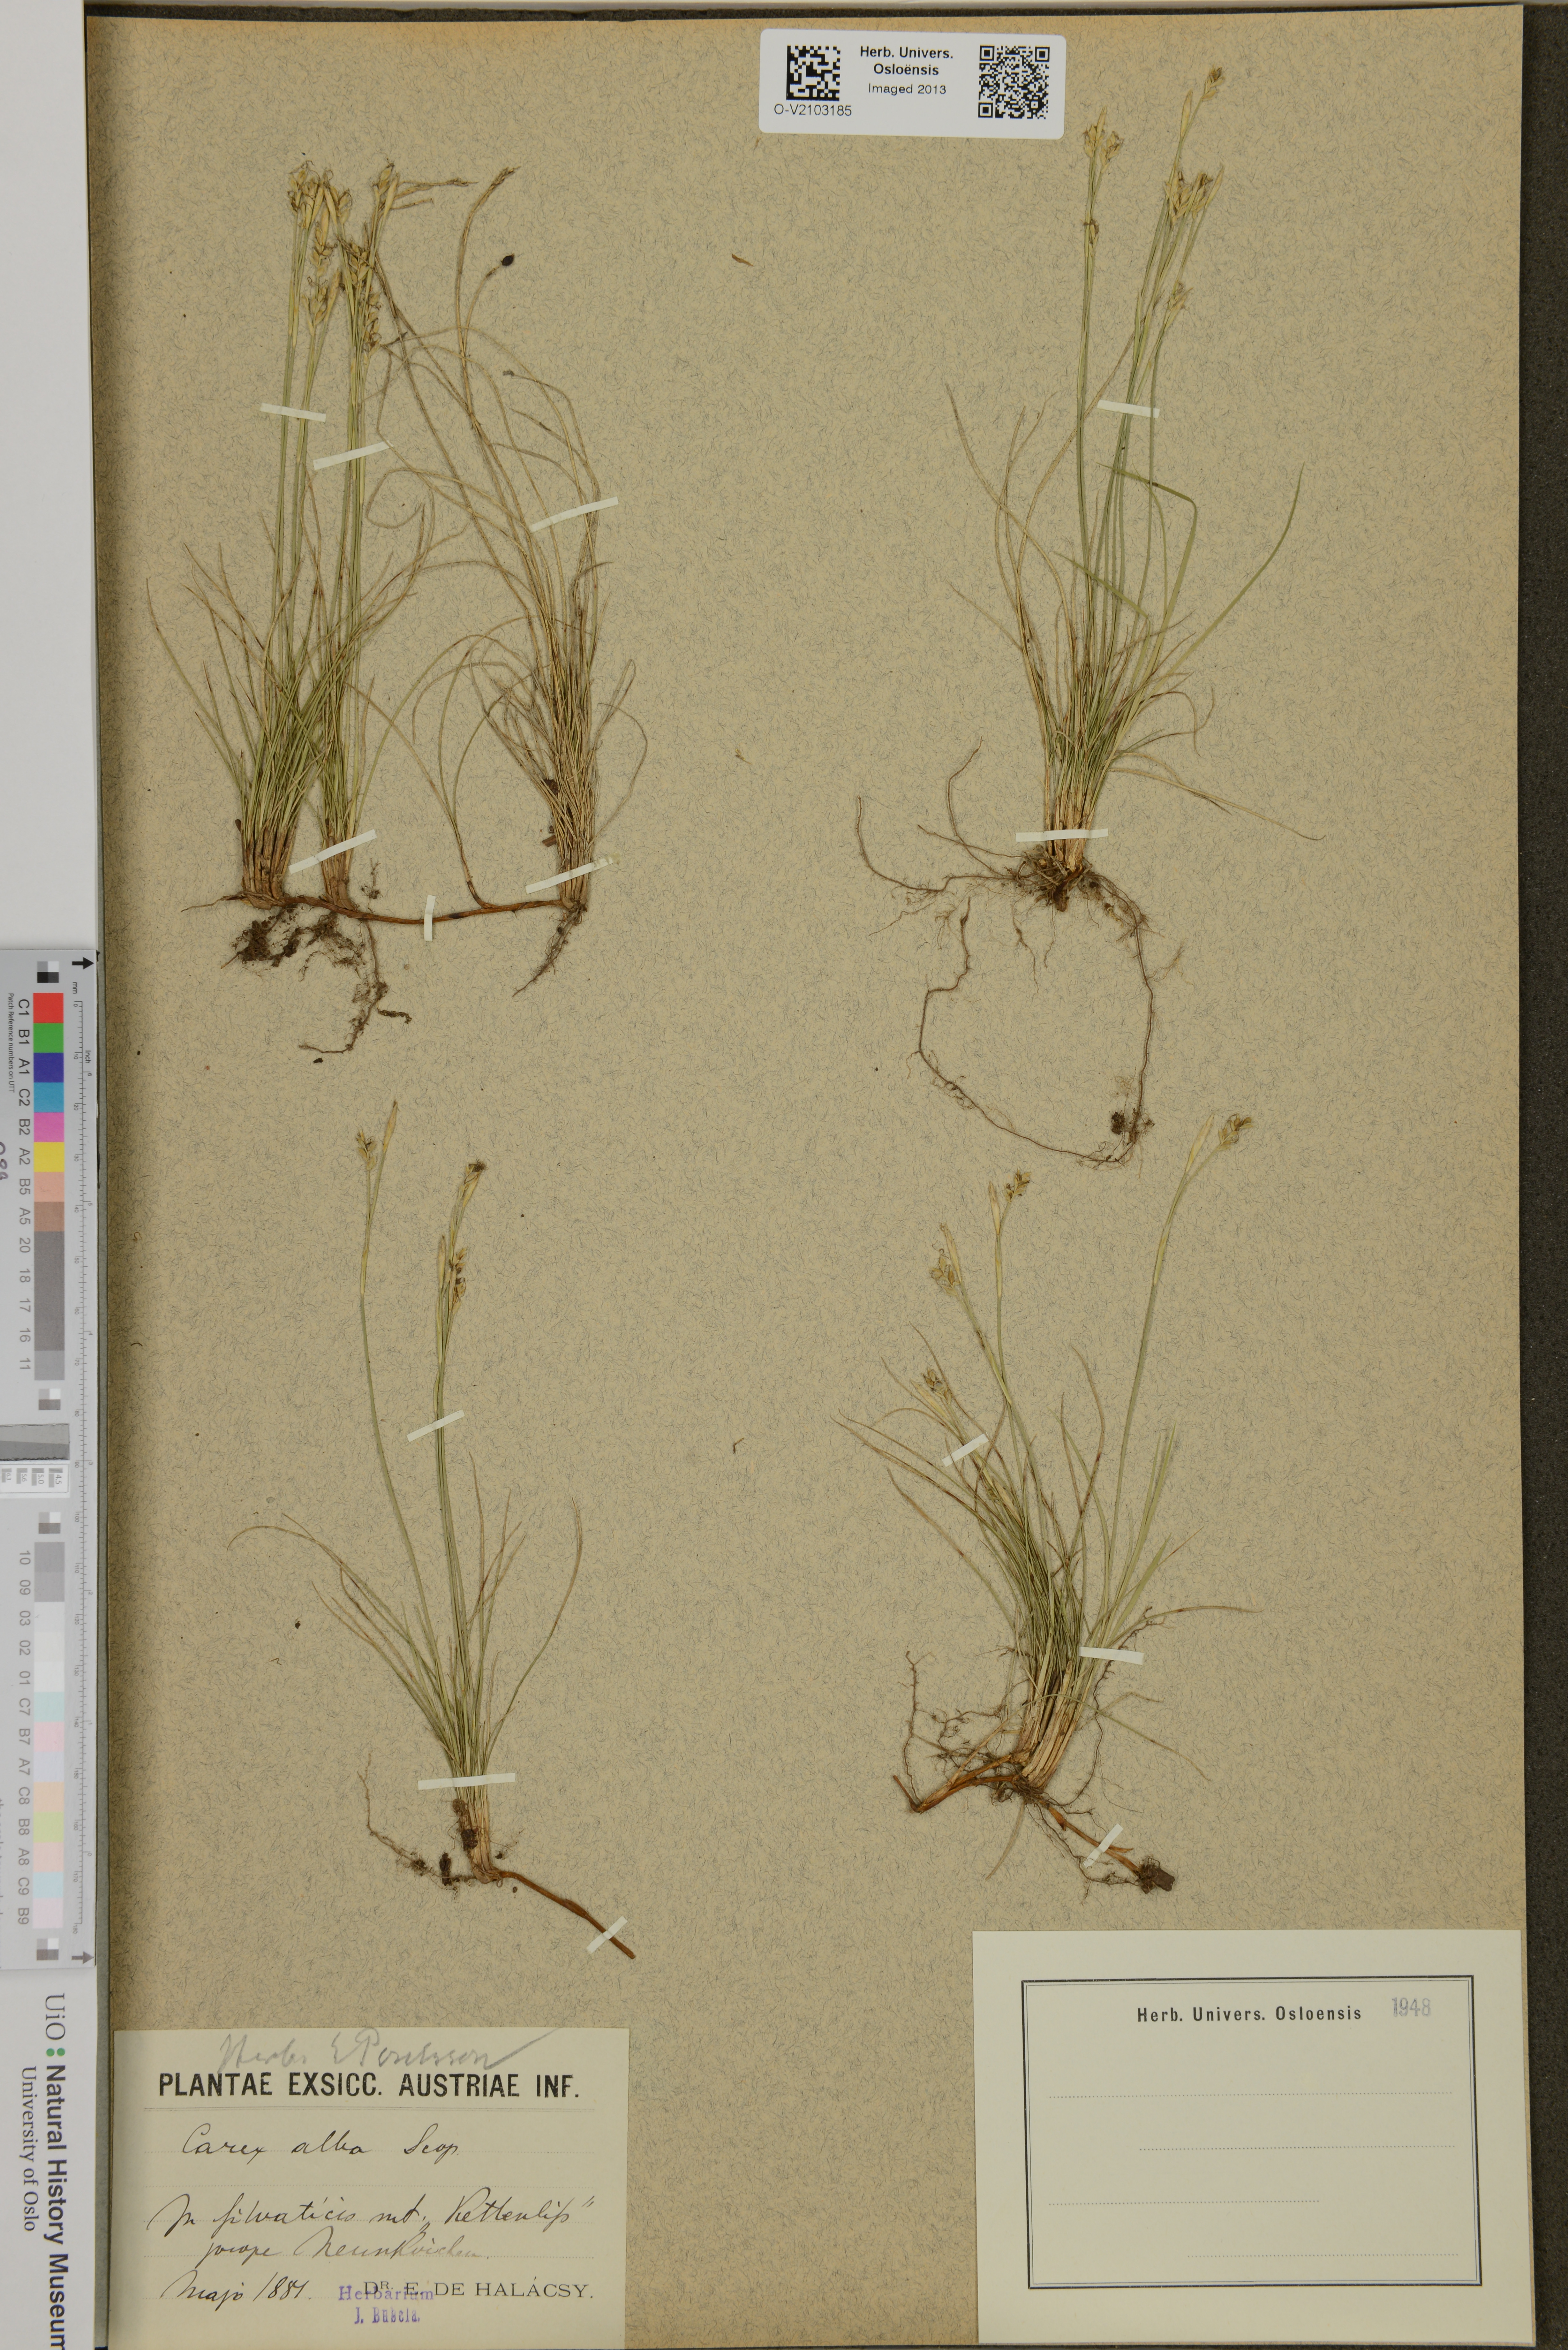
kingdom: Plantae
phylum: Tracheophyta
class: Liliopsida
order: Poales
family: Cyperaceae
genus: Carex
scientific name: Carex alba
